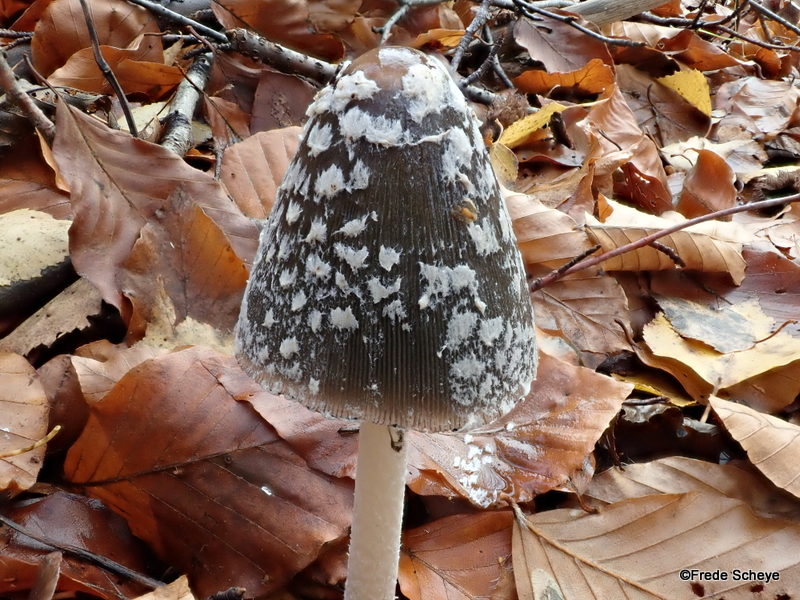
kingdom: Fungi
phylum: Basidiomycota
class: Agaricomycetes
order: Agaricales
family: Psathyrellaceae
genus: Coprinopsis
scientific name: Coprinopsis picacea
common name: skade-blækhat
